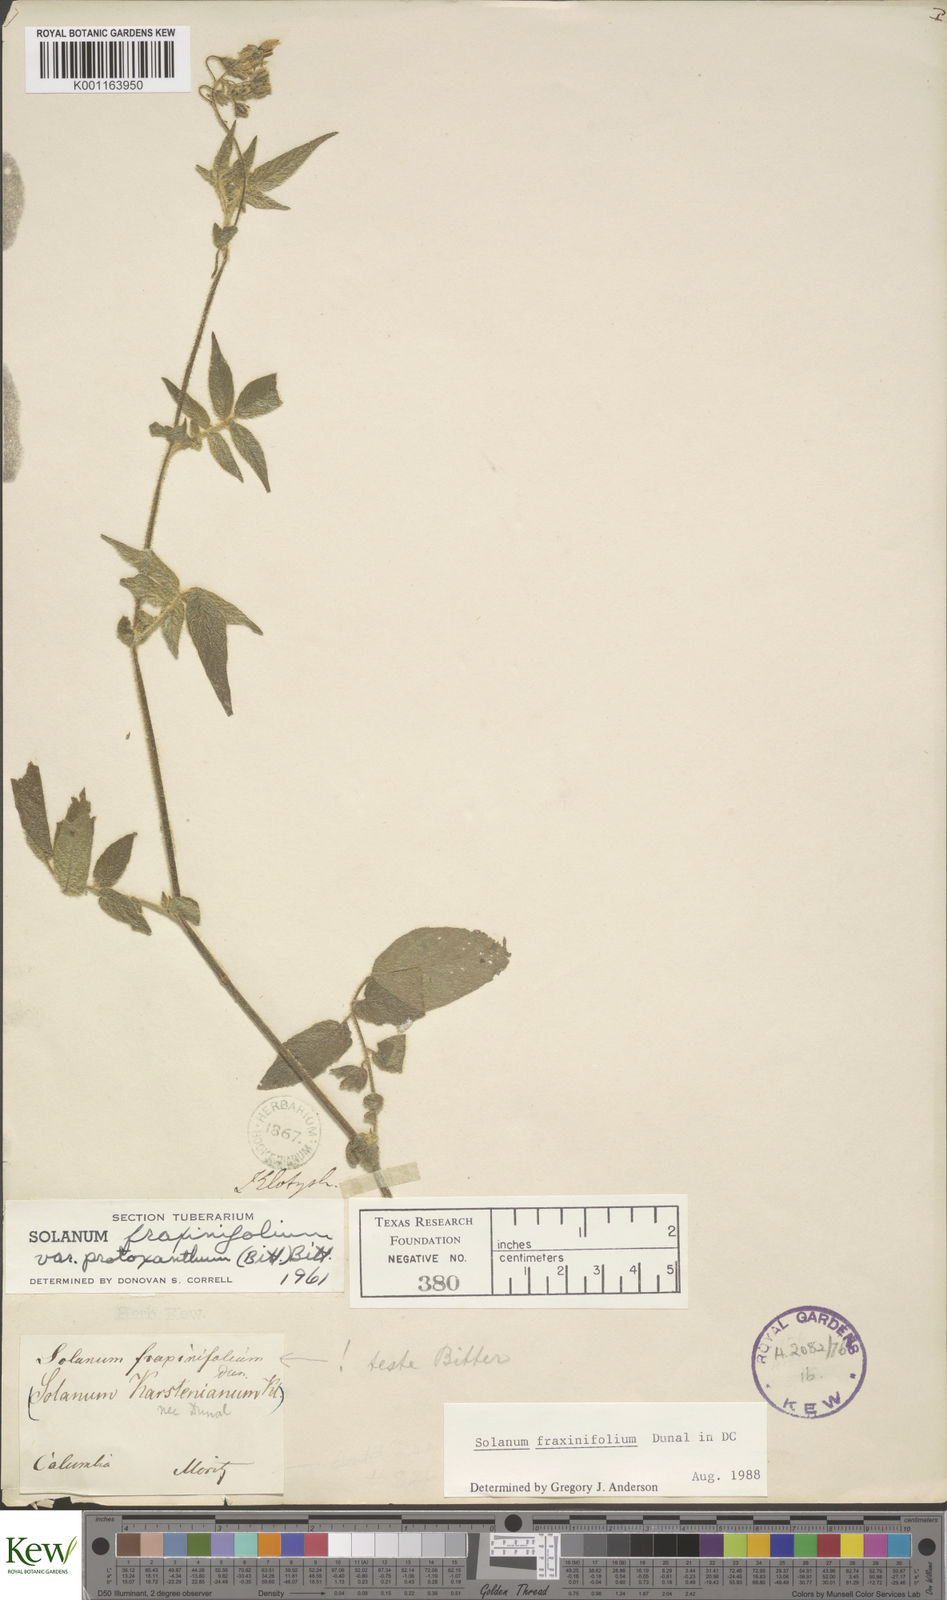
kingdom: Plantae
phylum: Tracheophyta
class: Magnoliopsida
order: Solanales
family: Solanaceae
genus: Solanum
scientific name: Solanum fraxinifolium
